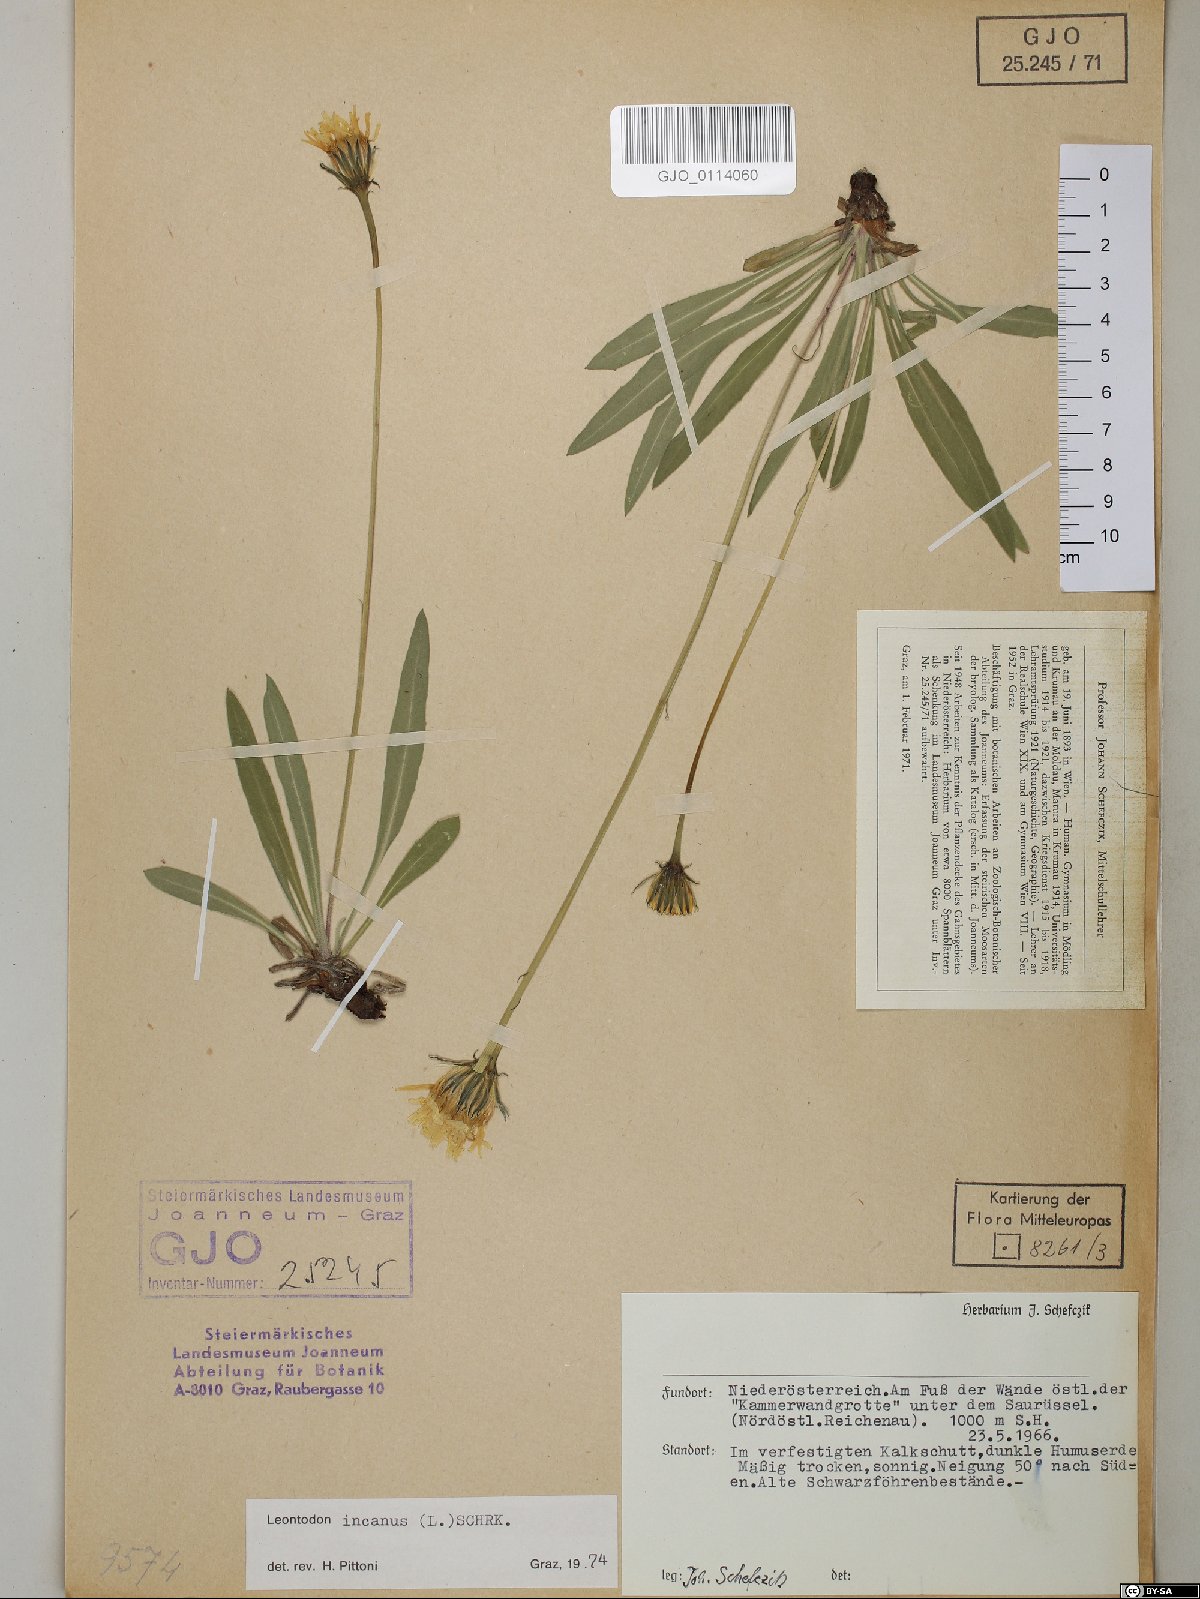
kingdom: Plantae
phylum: Tracheophyta
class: Magnoliopsida
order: Asterales
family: Asteraceae
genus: Leontodon
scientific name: Leontodon incanus
